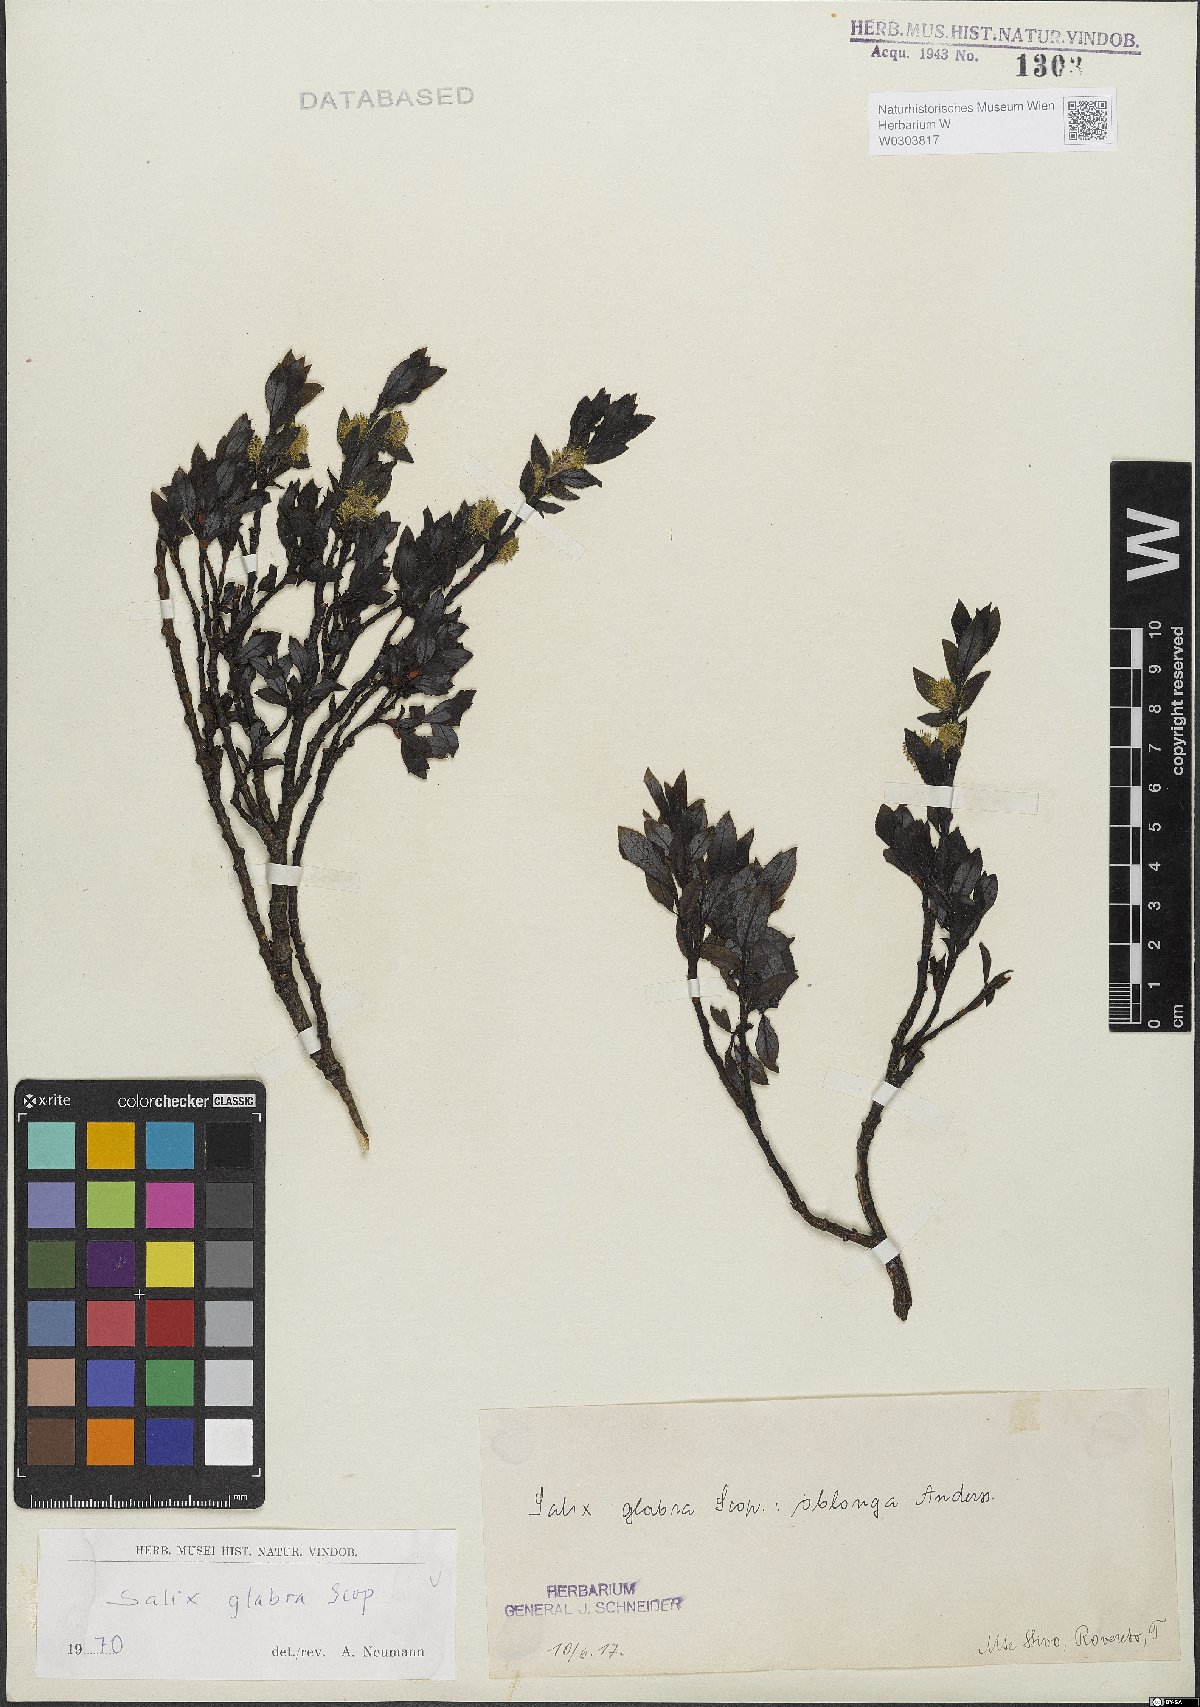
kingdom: Plantae
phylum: Tracheophyta
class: Magnoliopsida
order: Malpighiales
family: Salicaceae
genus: Salix
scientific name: Salix glabra
